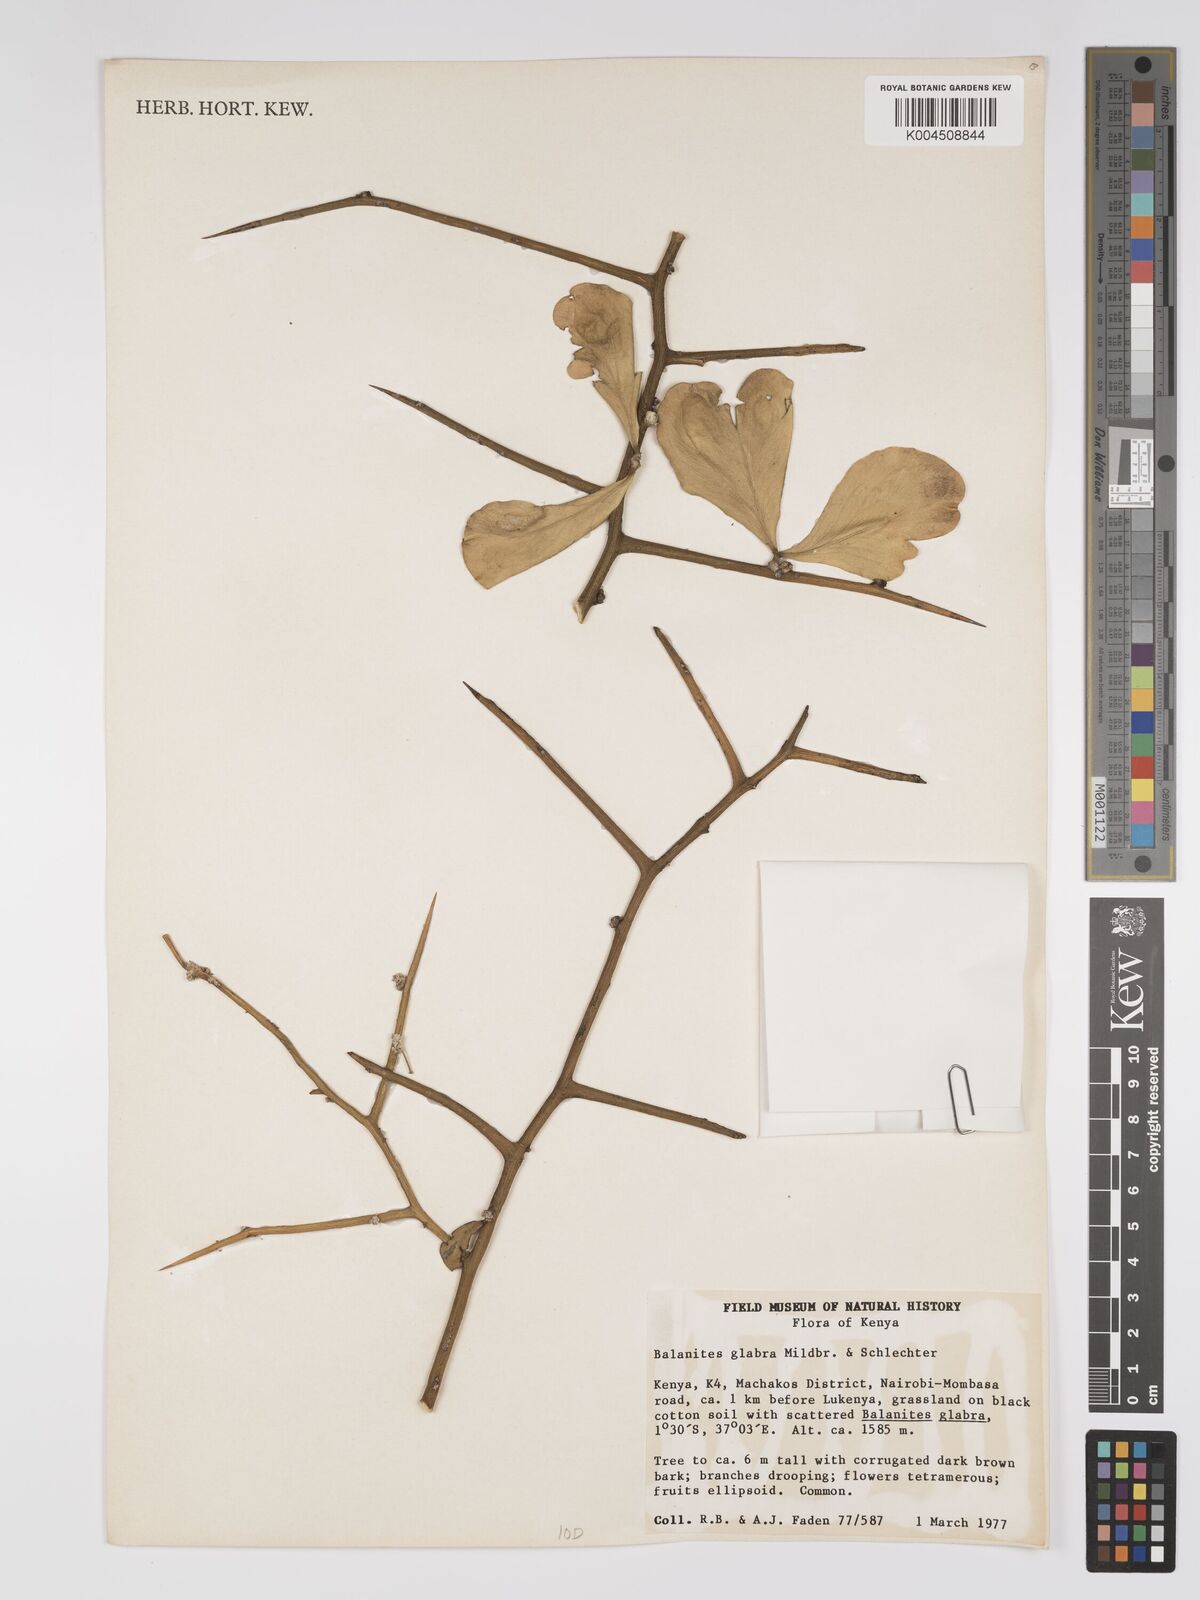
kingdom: Plantae
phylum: Tracheophyta
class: Magnoliopsida
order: Zygophyllales
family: Zygophyllaceae
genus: Balanites
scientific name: Balanites glabra
